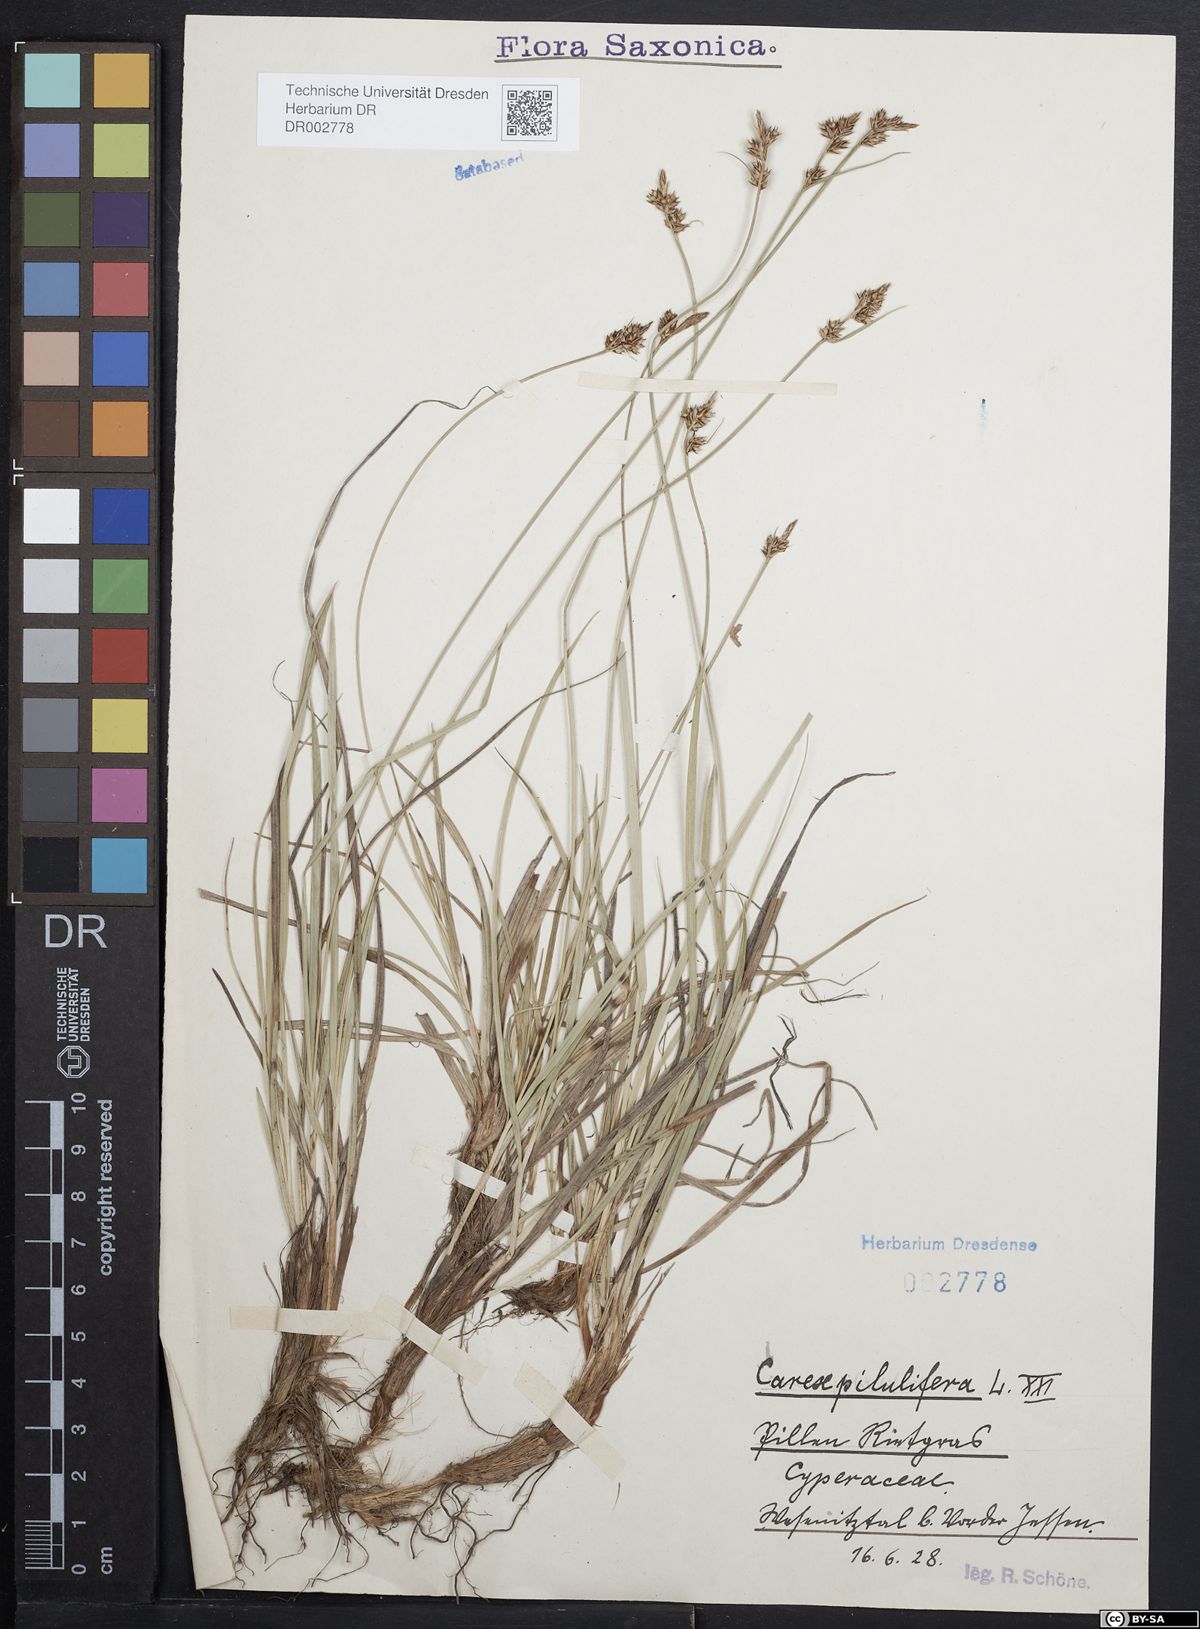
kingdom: Plantae
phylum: Tracheophyta
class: Liliopsida
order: Poales
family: Cyperaceae
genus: Carex
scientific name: Carex caryophyllea
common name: Spring sedge
